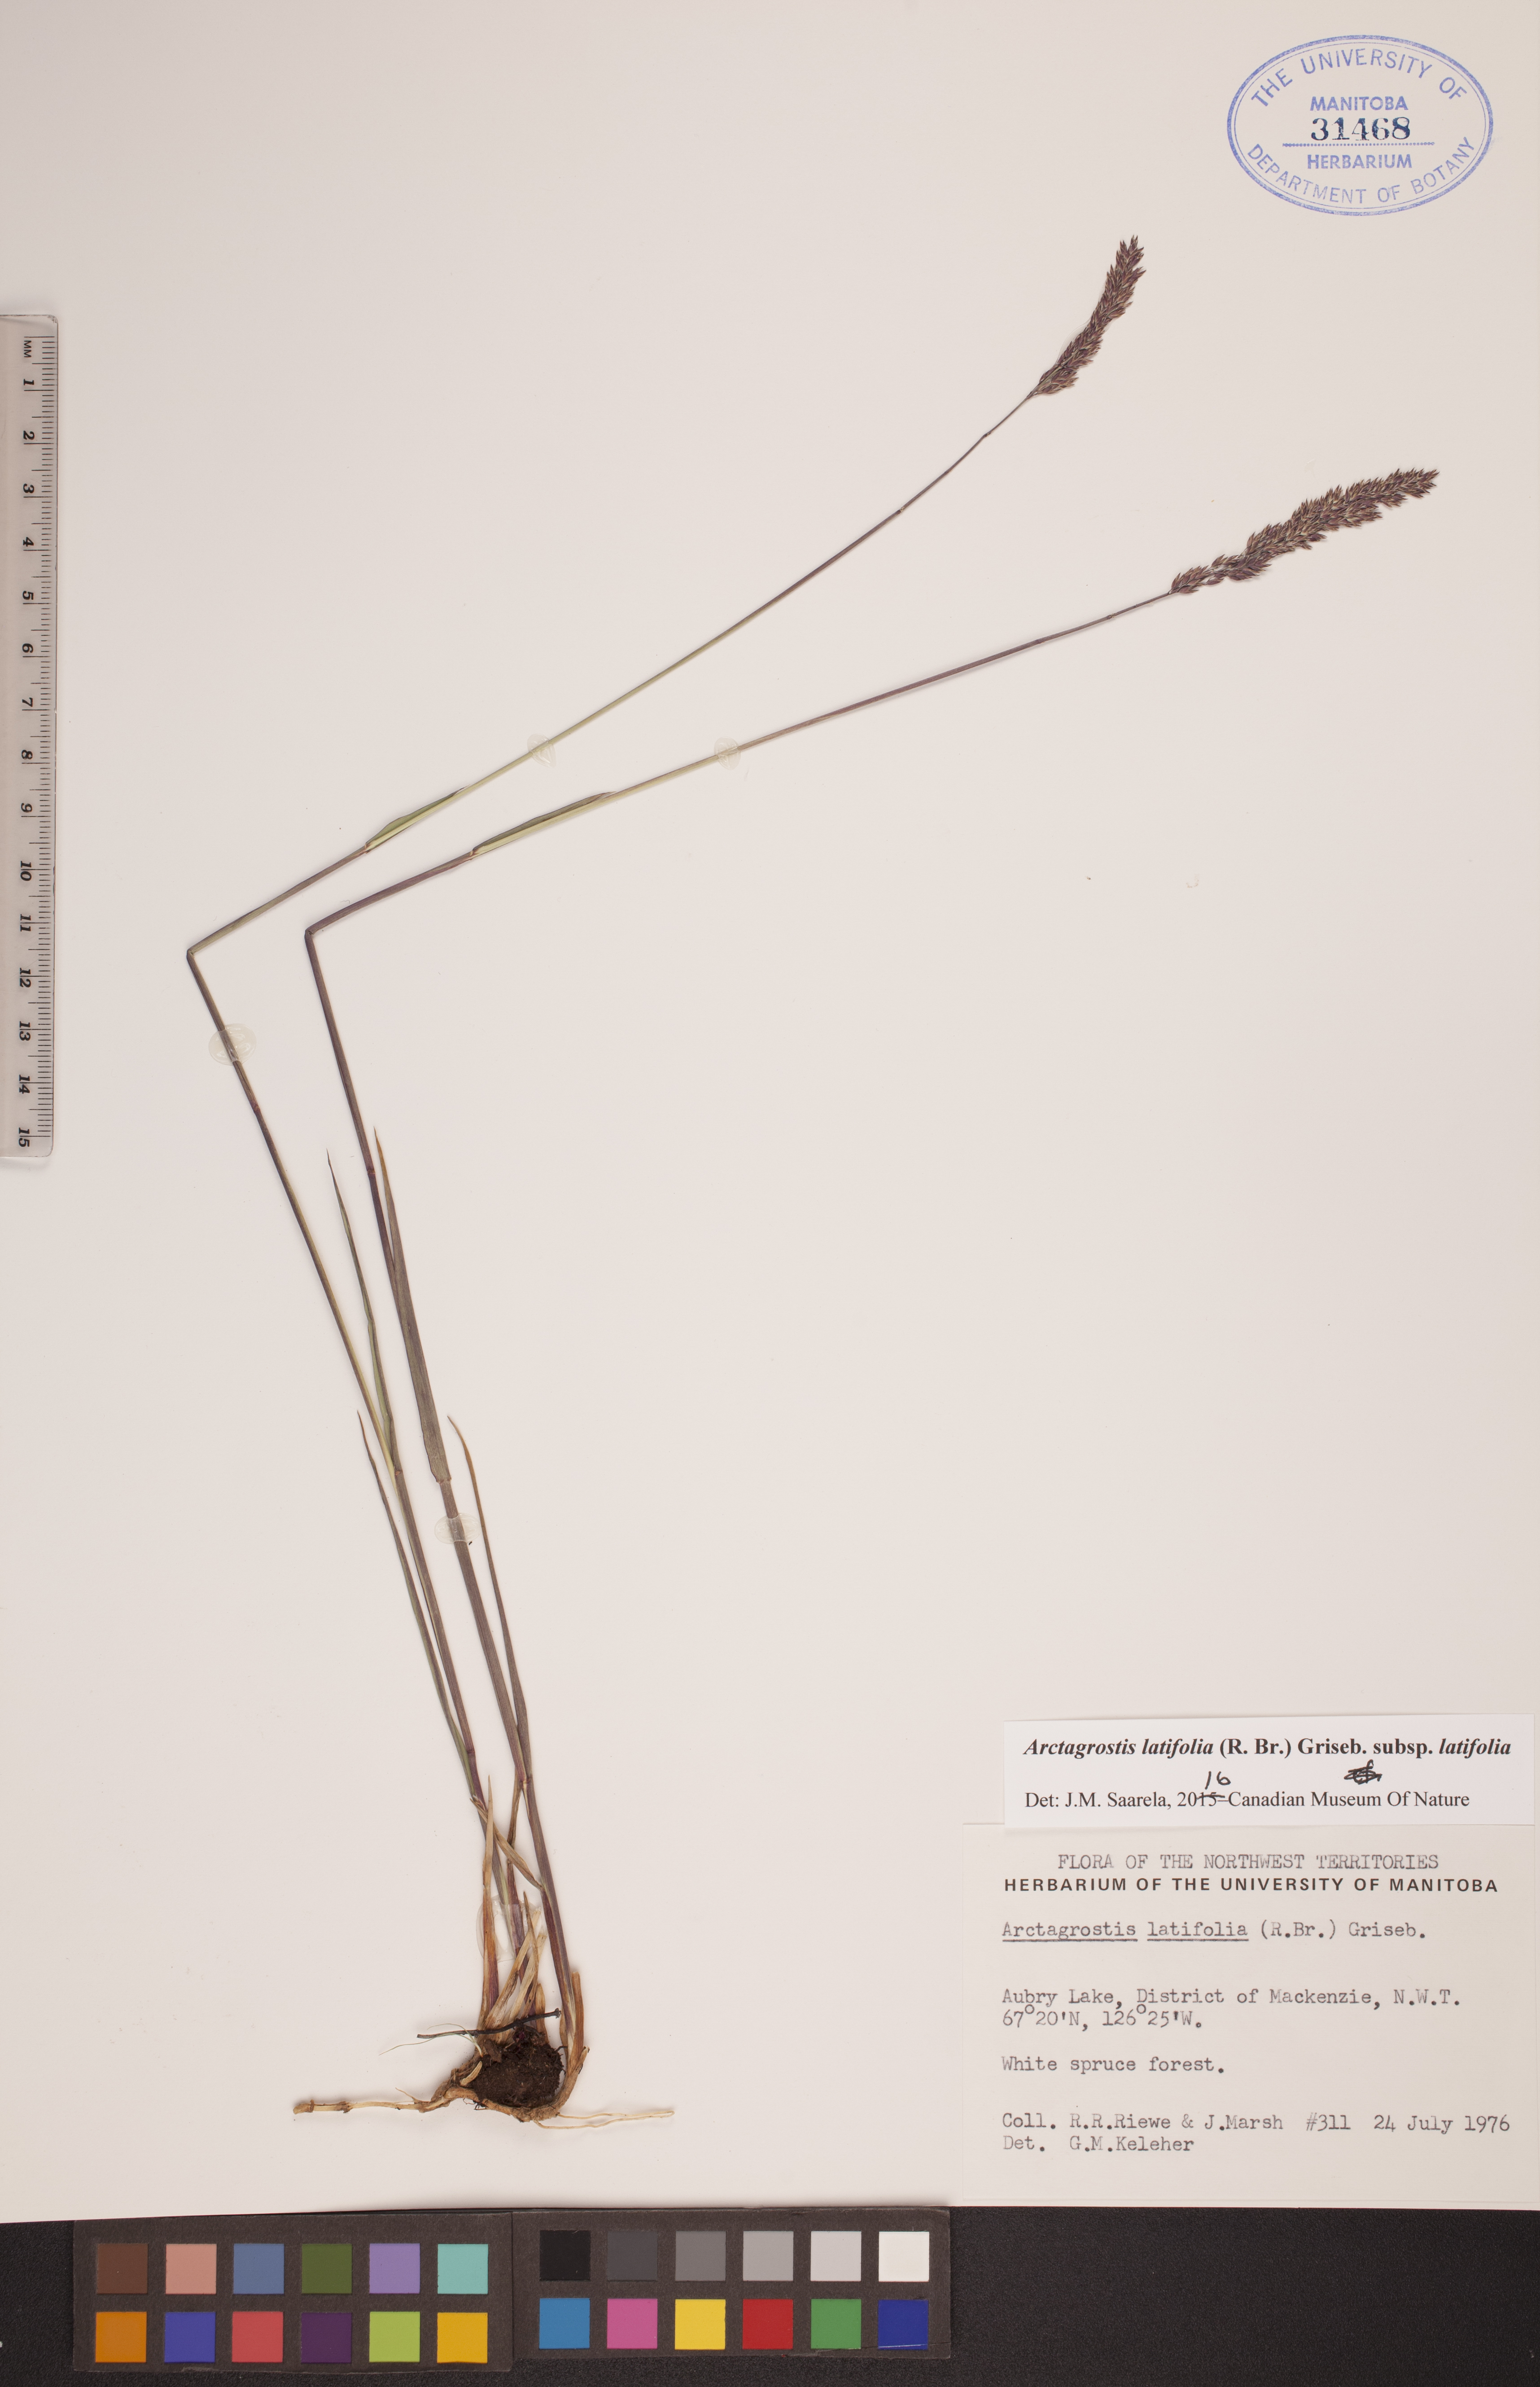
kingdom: Plantae
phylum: Tracheophyta
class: Liliopsida
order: Poales
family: Poaceae
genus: Arctagrostis
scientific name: Arctagrostis latifolia
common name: Arctic grass
